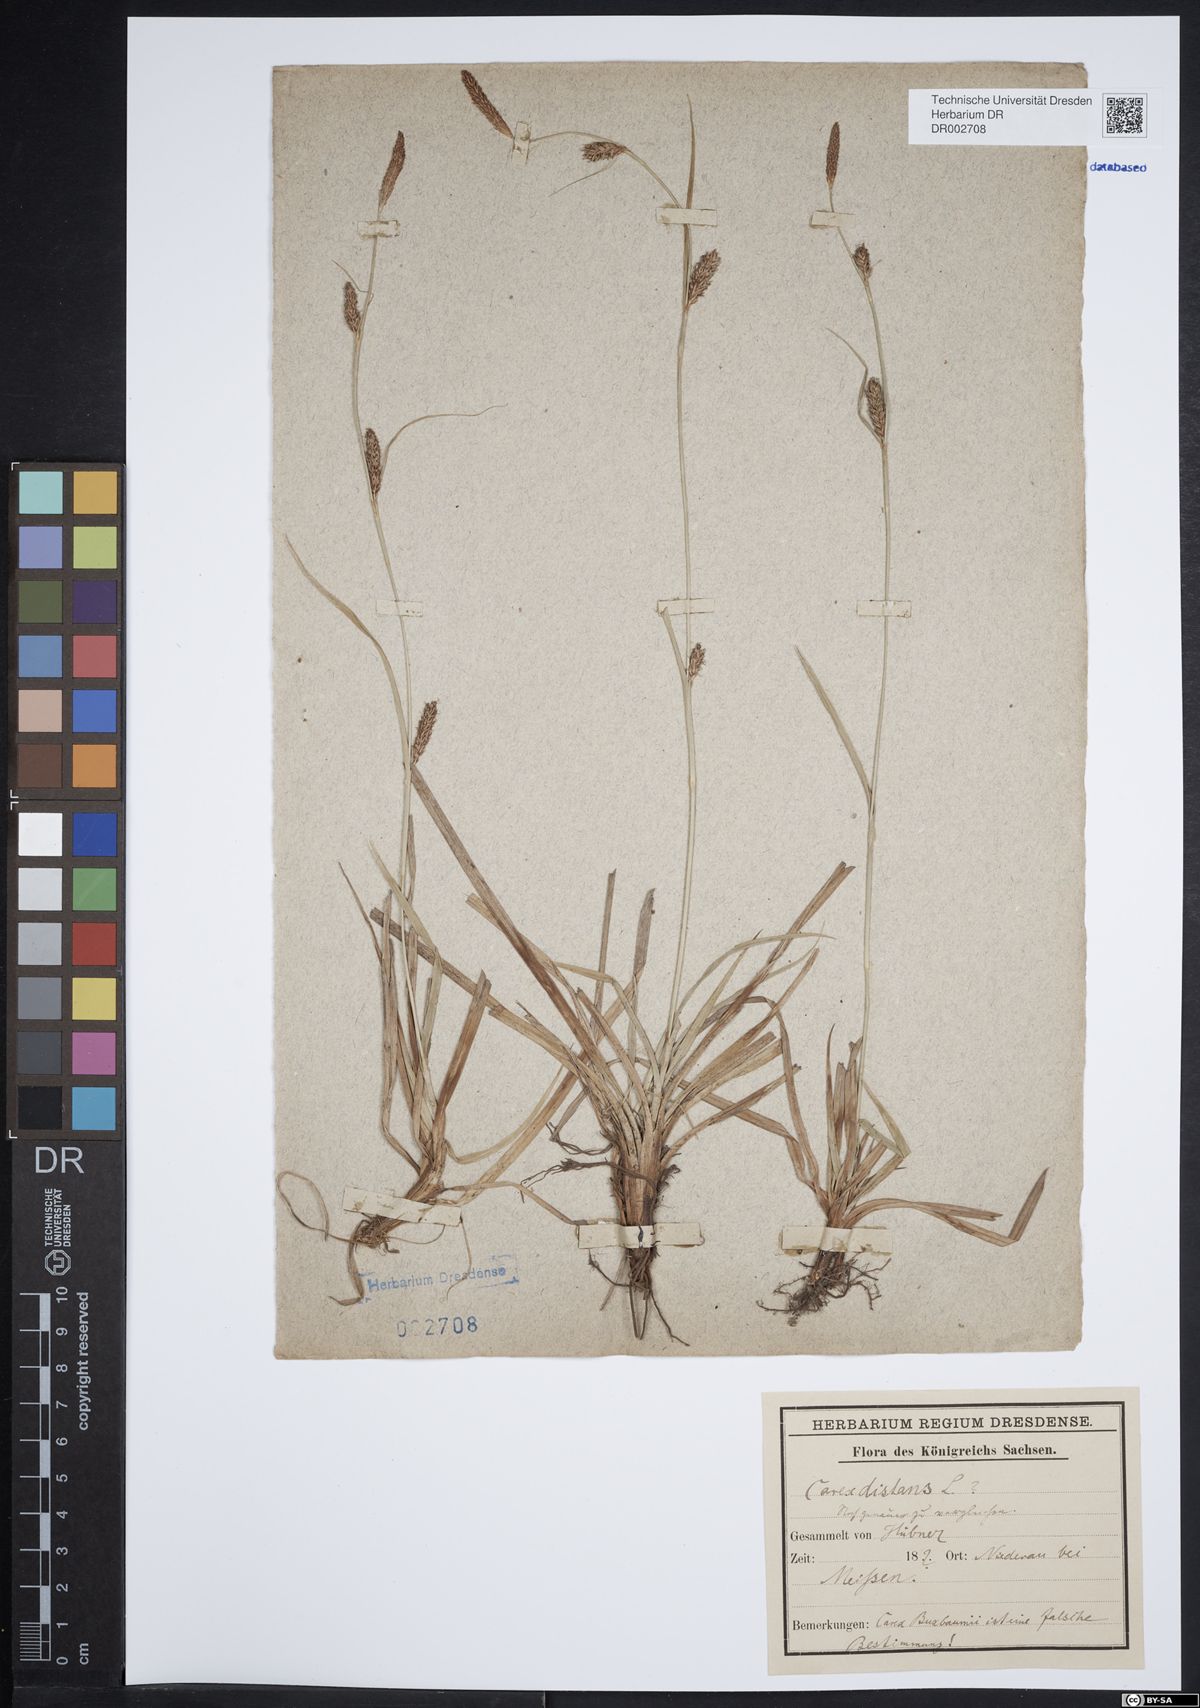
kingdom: Plantae
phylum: Tracheophyta
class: Liliopsida
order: Poales
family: Cyperaceae
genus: Carex
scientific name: Carex distans
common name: Distant sedge
